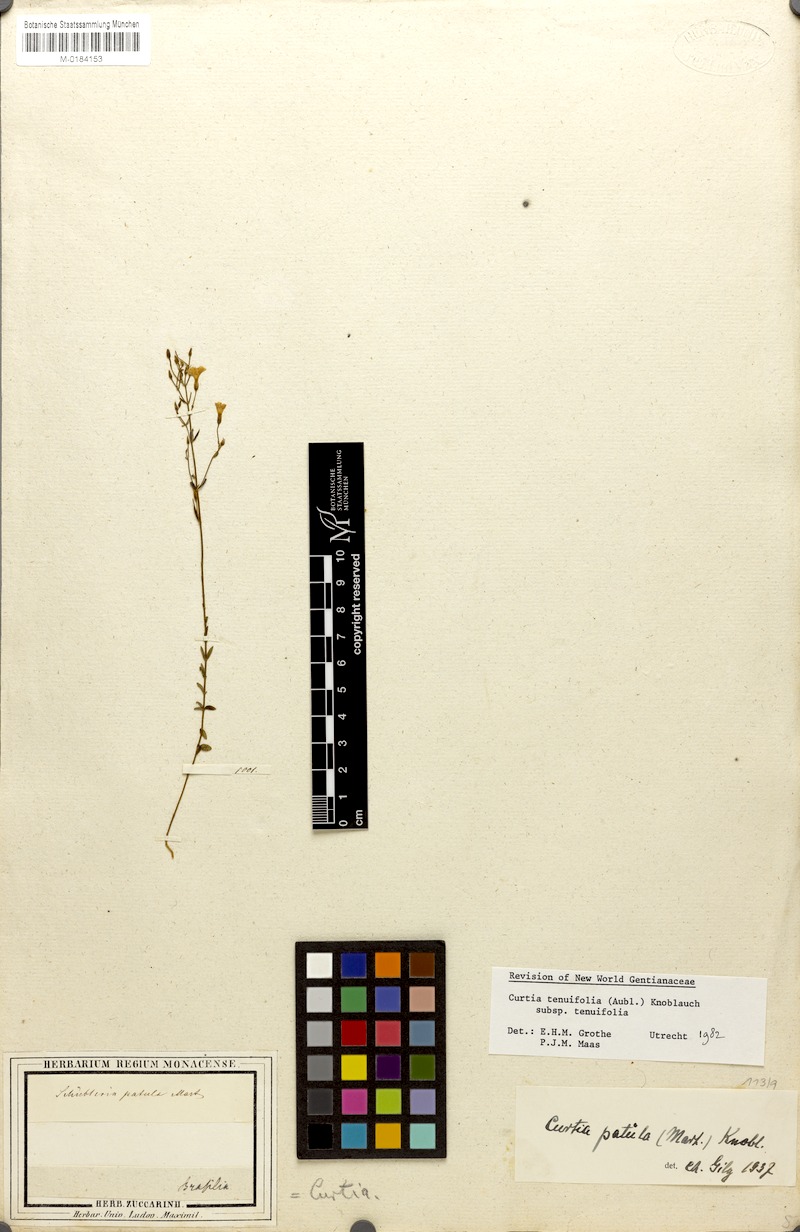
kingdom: Plantae
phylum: Tracheophyta
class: Magnoliopsida
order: Gentianales
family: Gentianaceae
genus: Curtia
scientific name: Curtia tenuifolia
